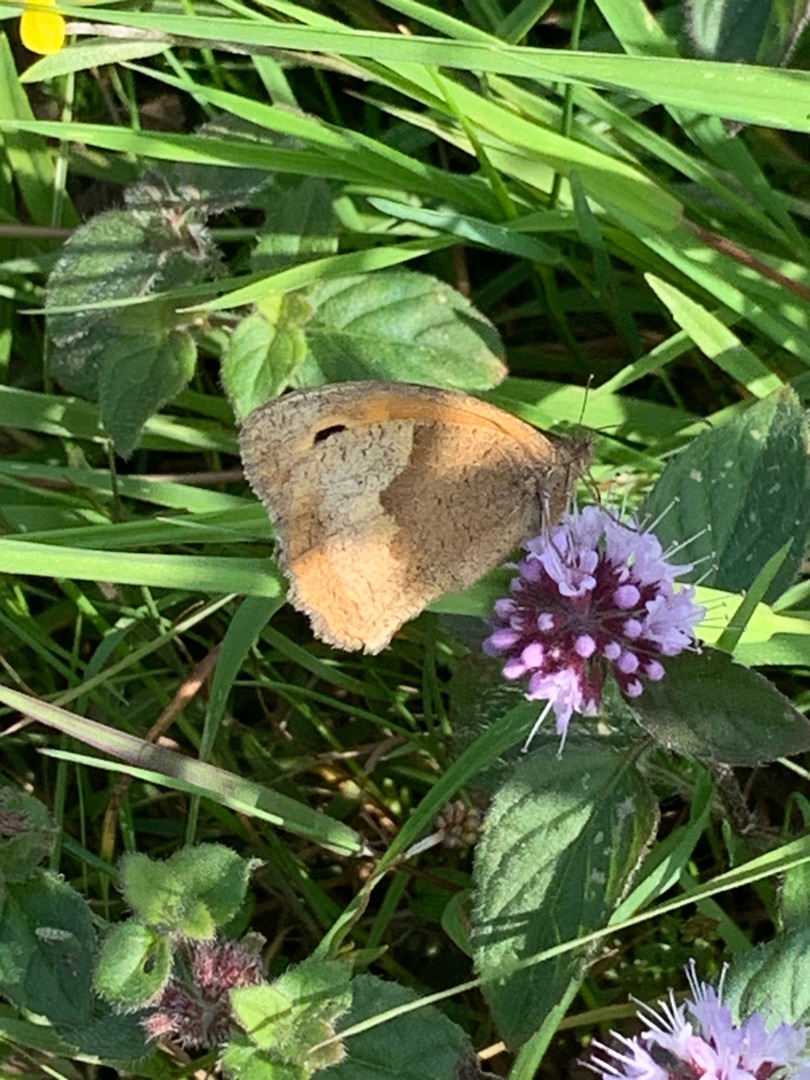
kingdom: Animalia
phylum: Arthropoda
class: Insecta
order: Lepidoptera
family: Nymphalidae
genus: Maniola
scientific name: Maniola jurtina
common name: Græsrandøje
